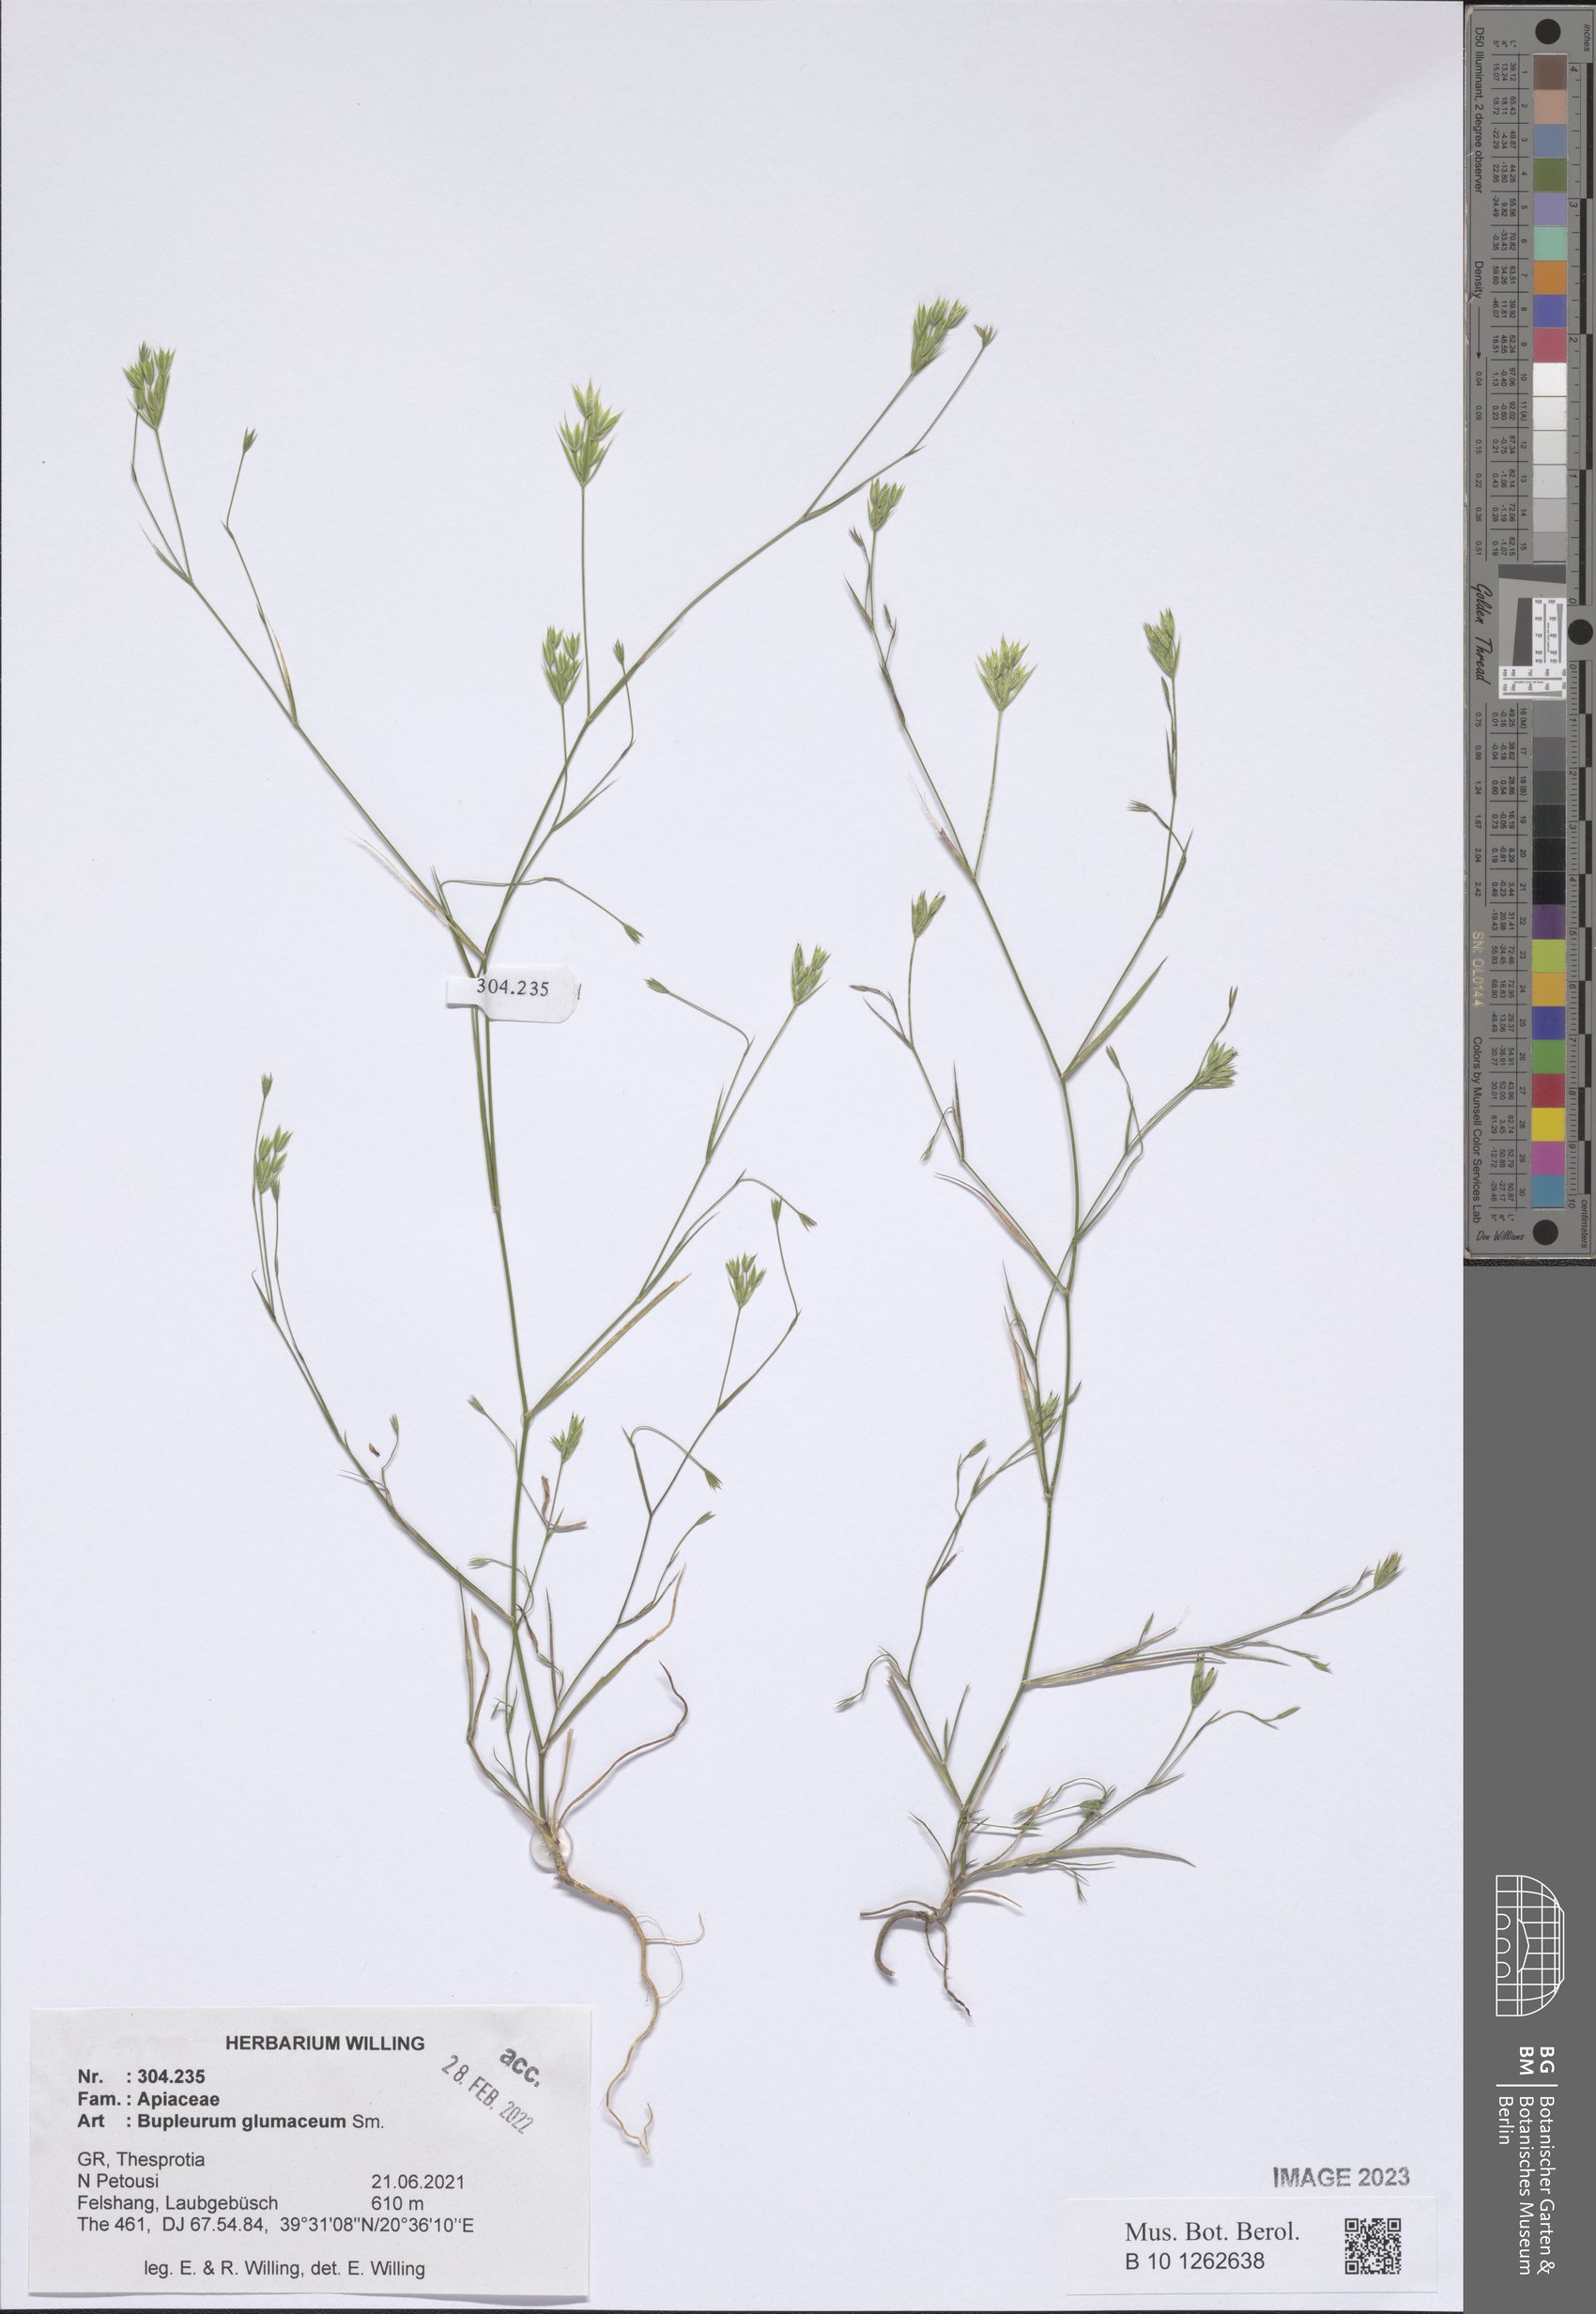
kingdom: Plantae
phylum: Tracheophyta
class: Magnoliopsida
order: Apiales
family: Apiaceae
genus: Bupleurum
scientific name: Bupleurum glumaceum
